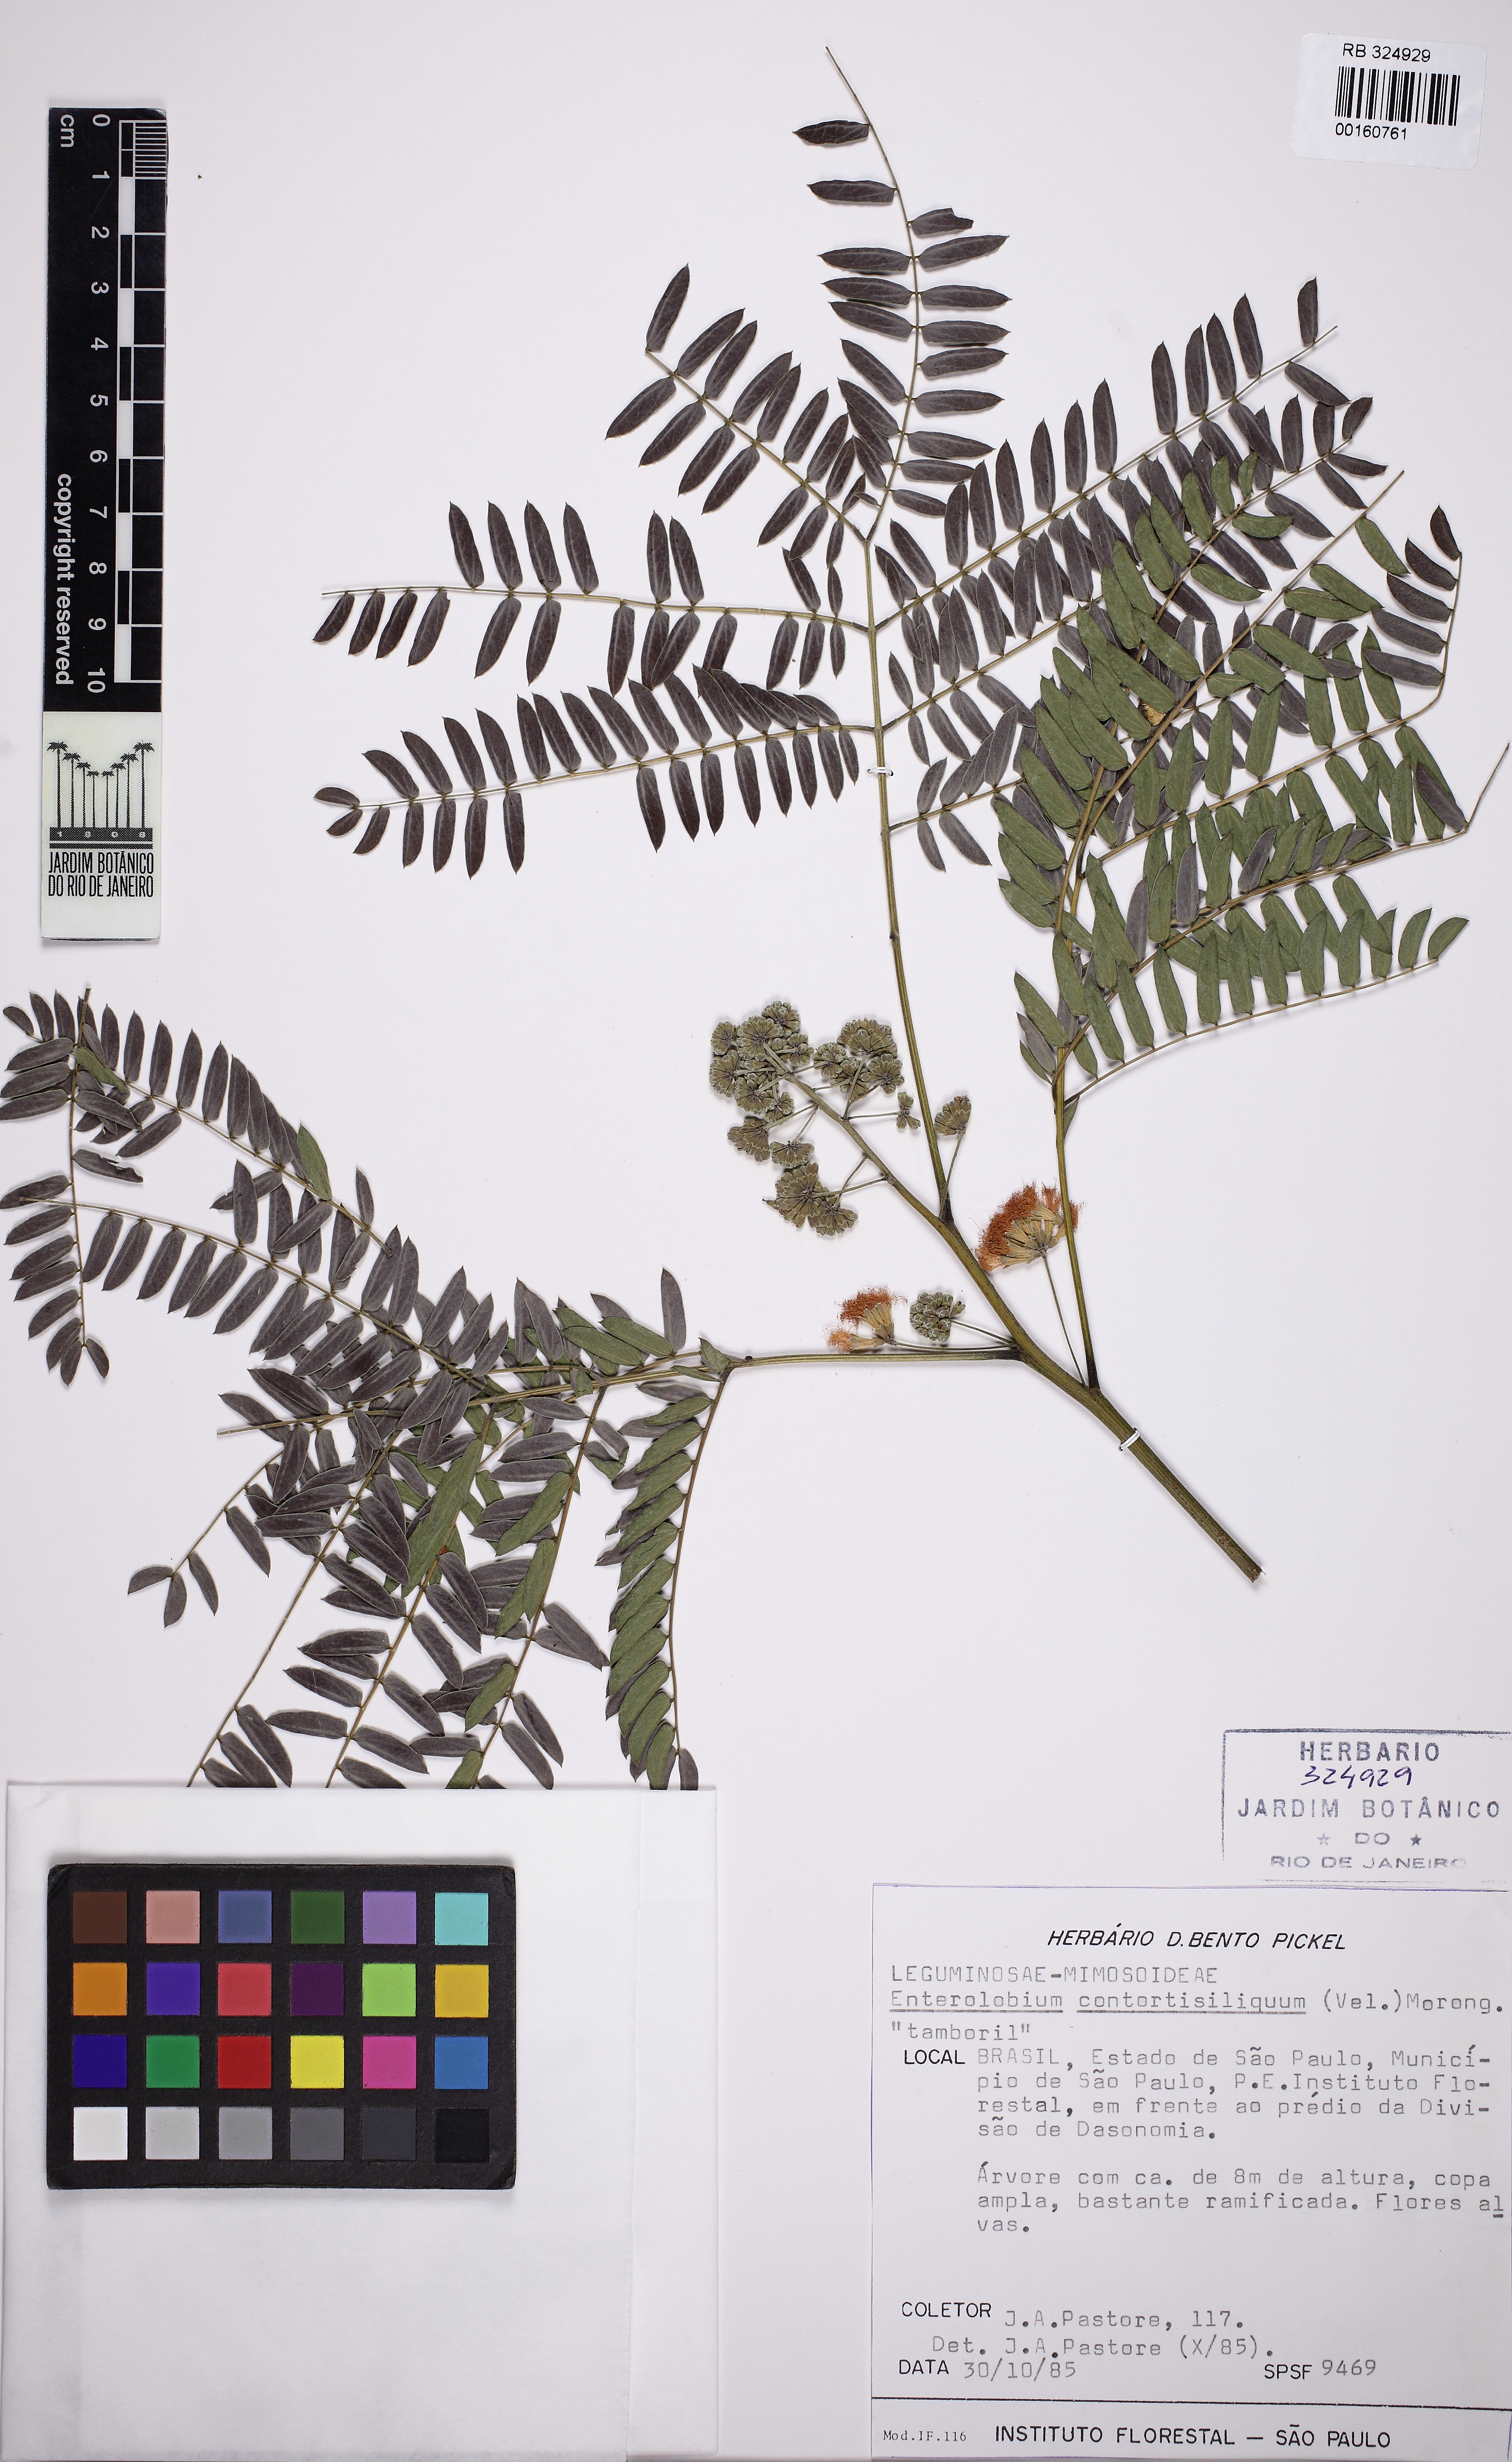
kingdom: Plantae
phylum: Tracheophyta
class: Magnoliopsida
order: Fabales
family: Fabaceae
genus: Enterolobium
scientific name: Enterolobium contortisiliquum
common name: Pacara earpod tree
